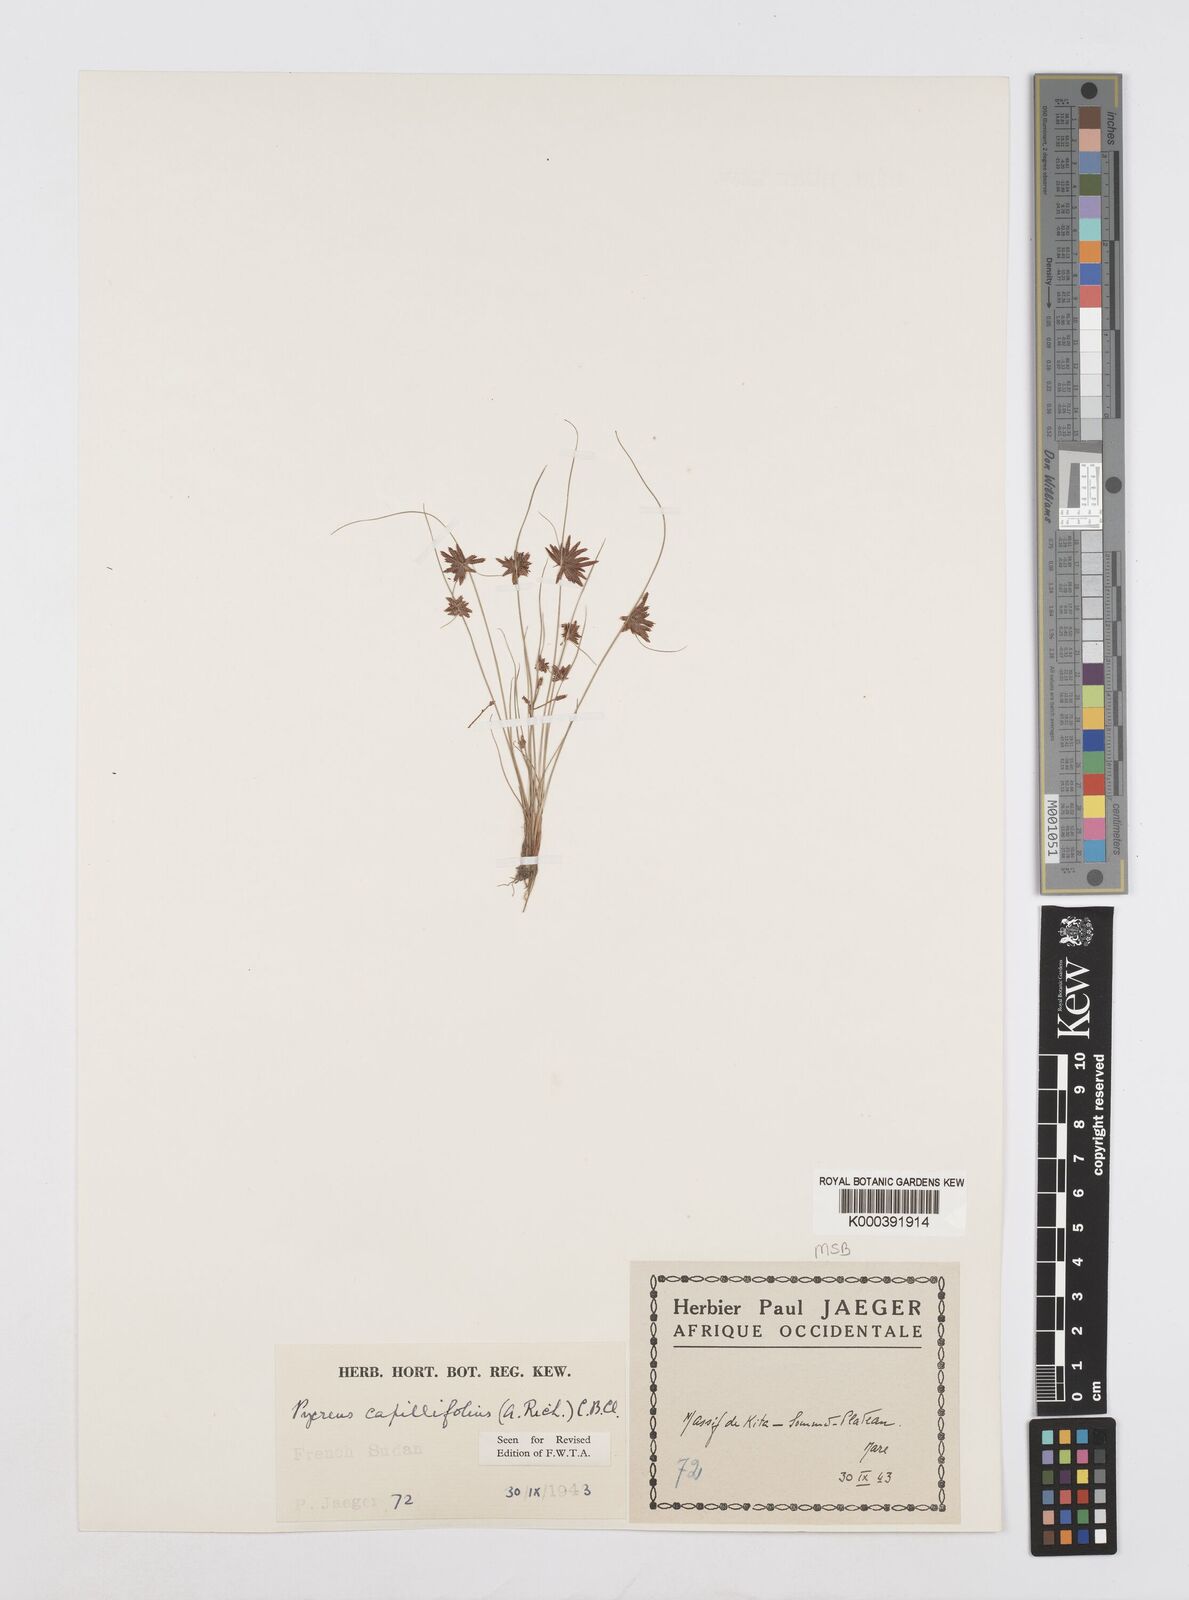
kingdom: Plantae
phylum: Tracheophyta
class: Liliopsida
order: Poales
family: Cyperaceae
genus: Cyperus
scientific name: Cyperus capillifolius
